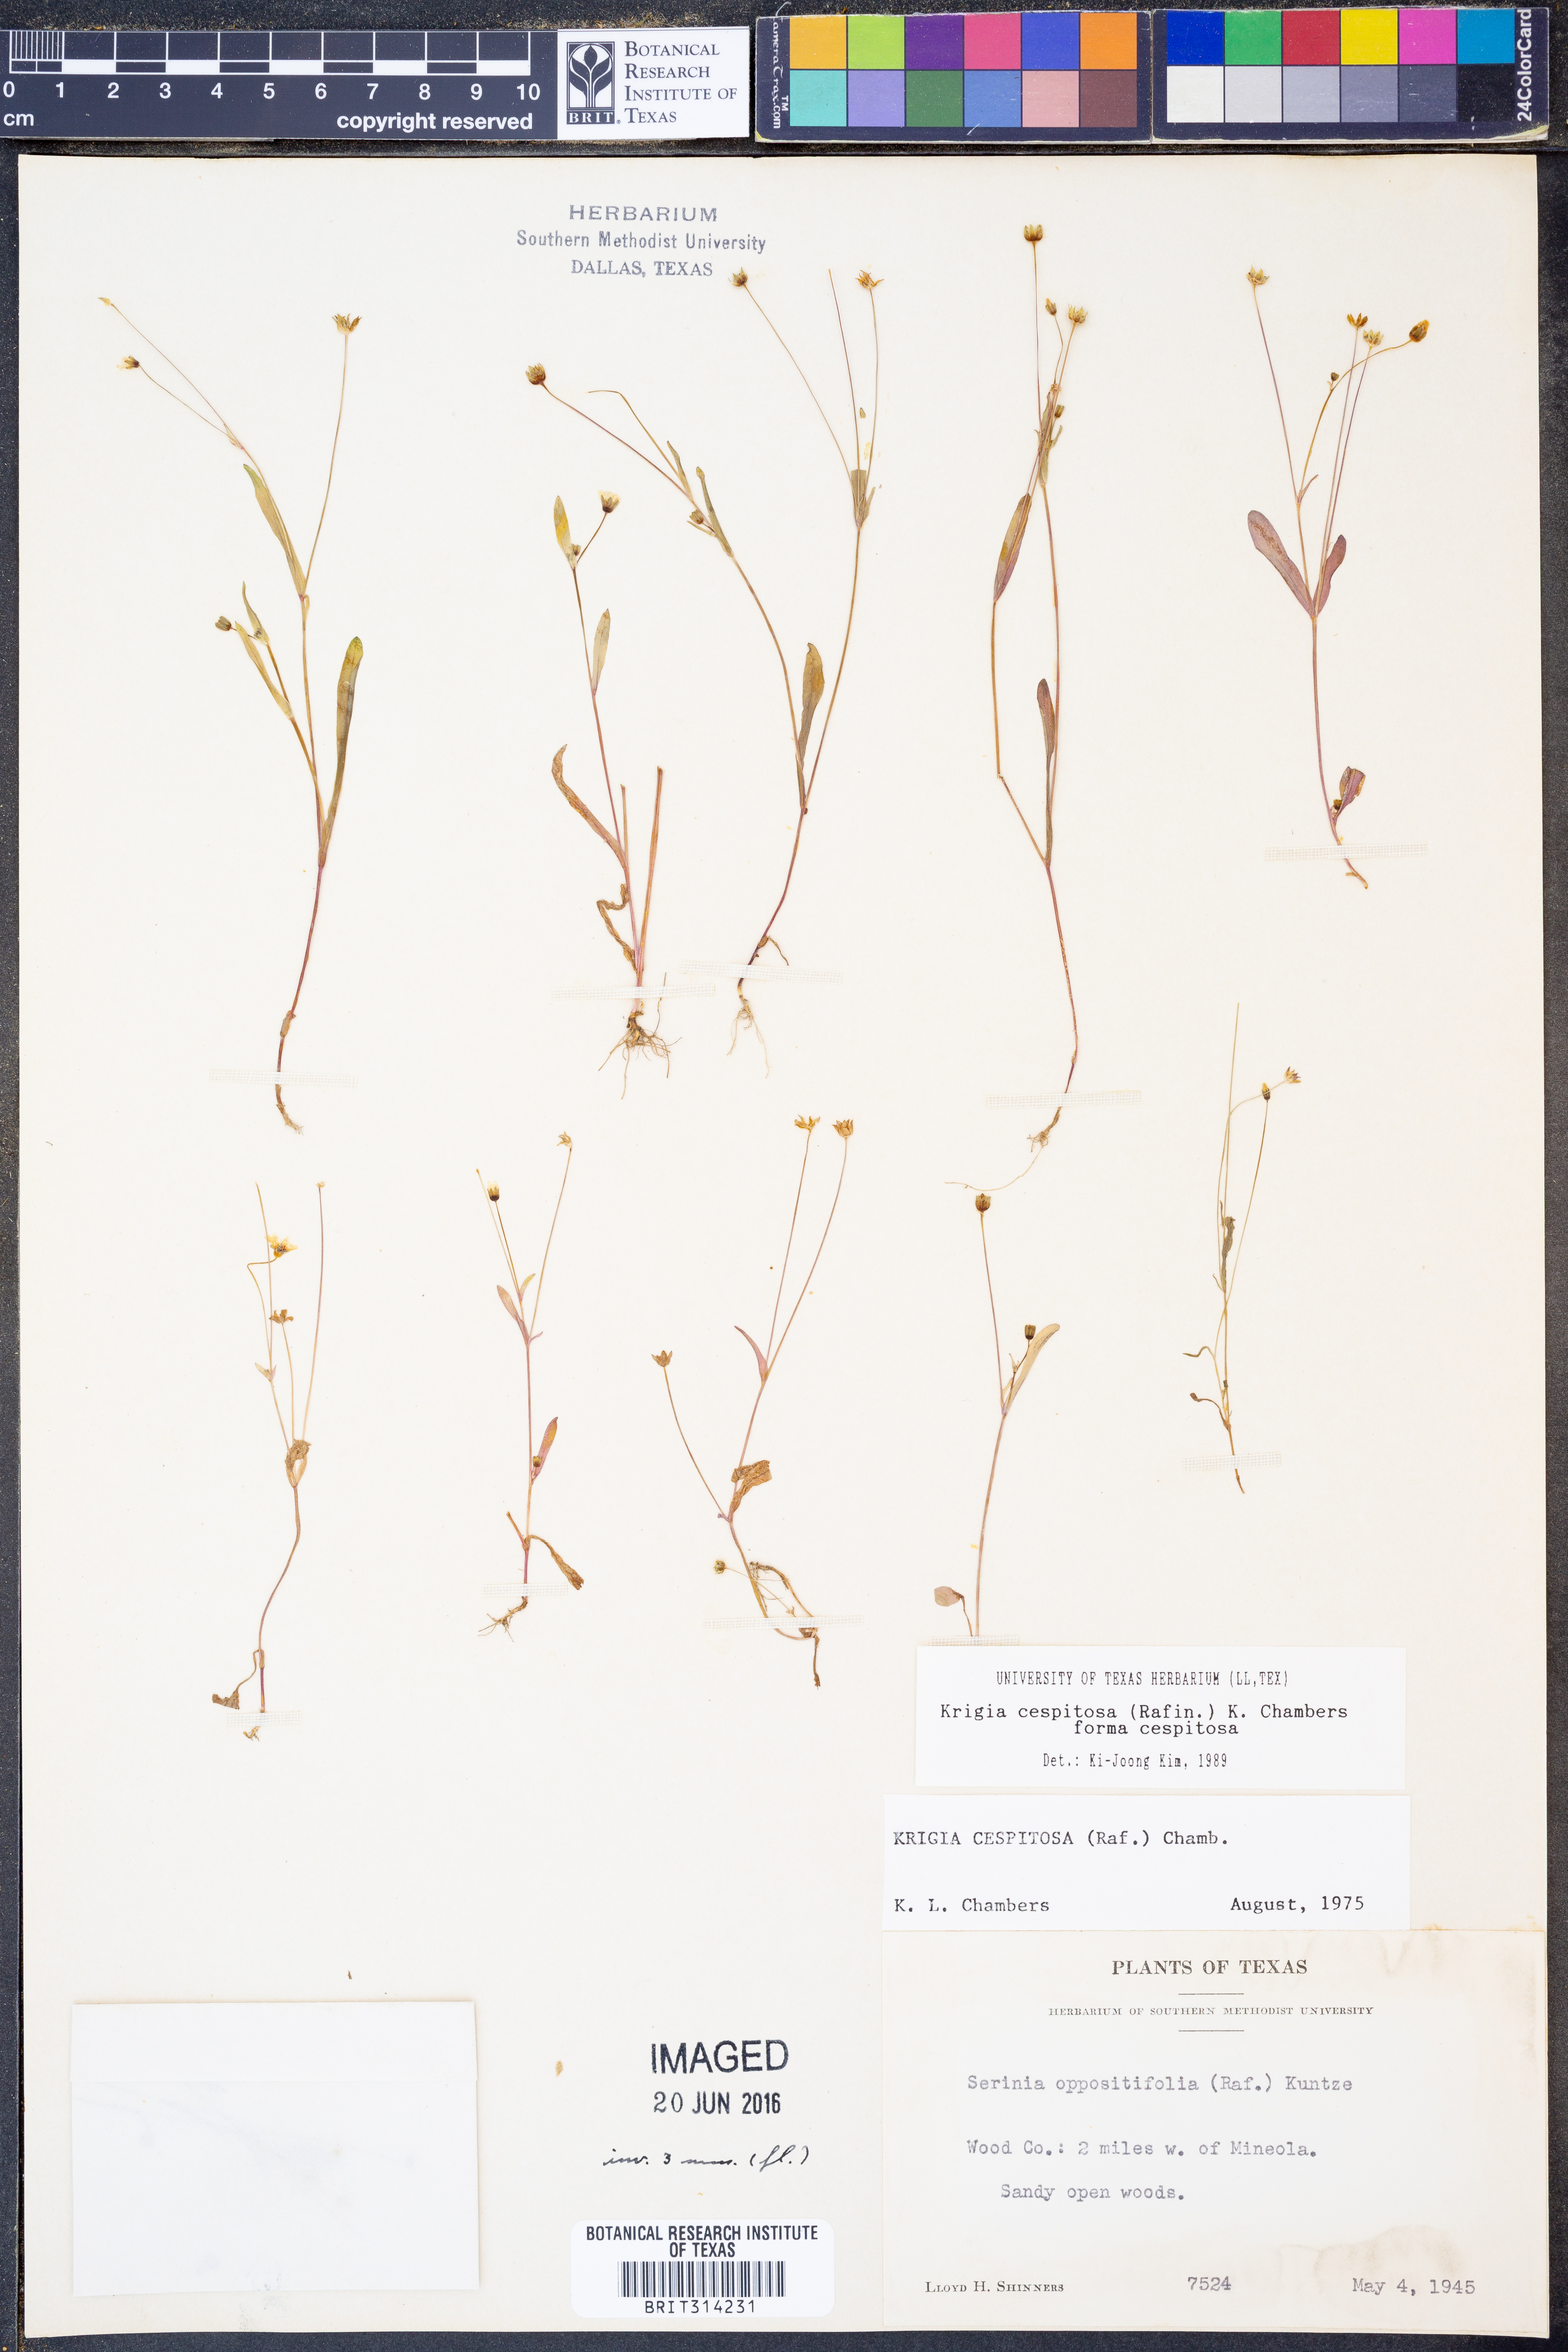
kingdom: Plantae
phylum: Tracheophyta
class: Magnoliopsida
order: Asterales
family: Asteraceae
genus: Krigia
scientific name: Krigia cespitosa
